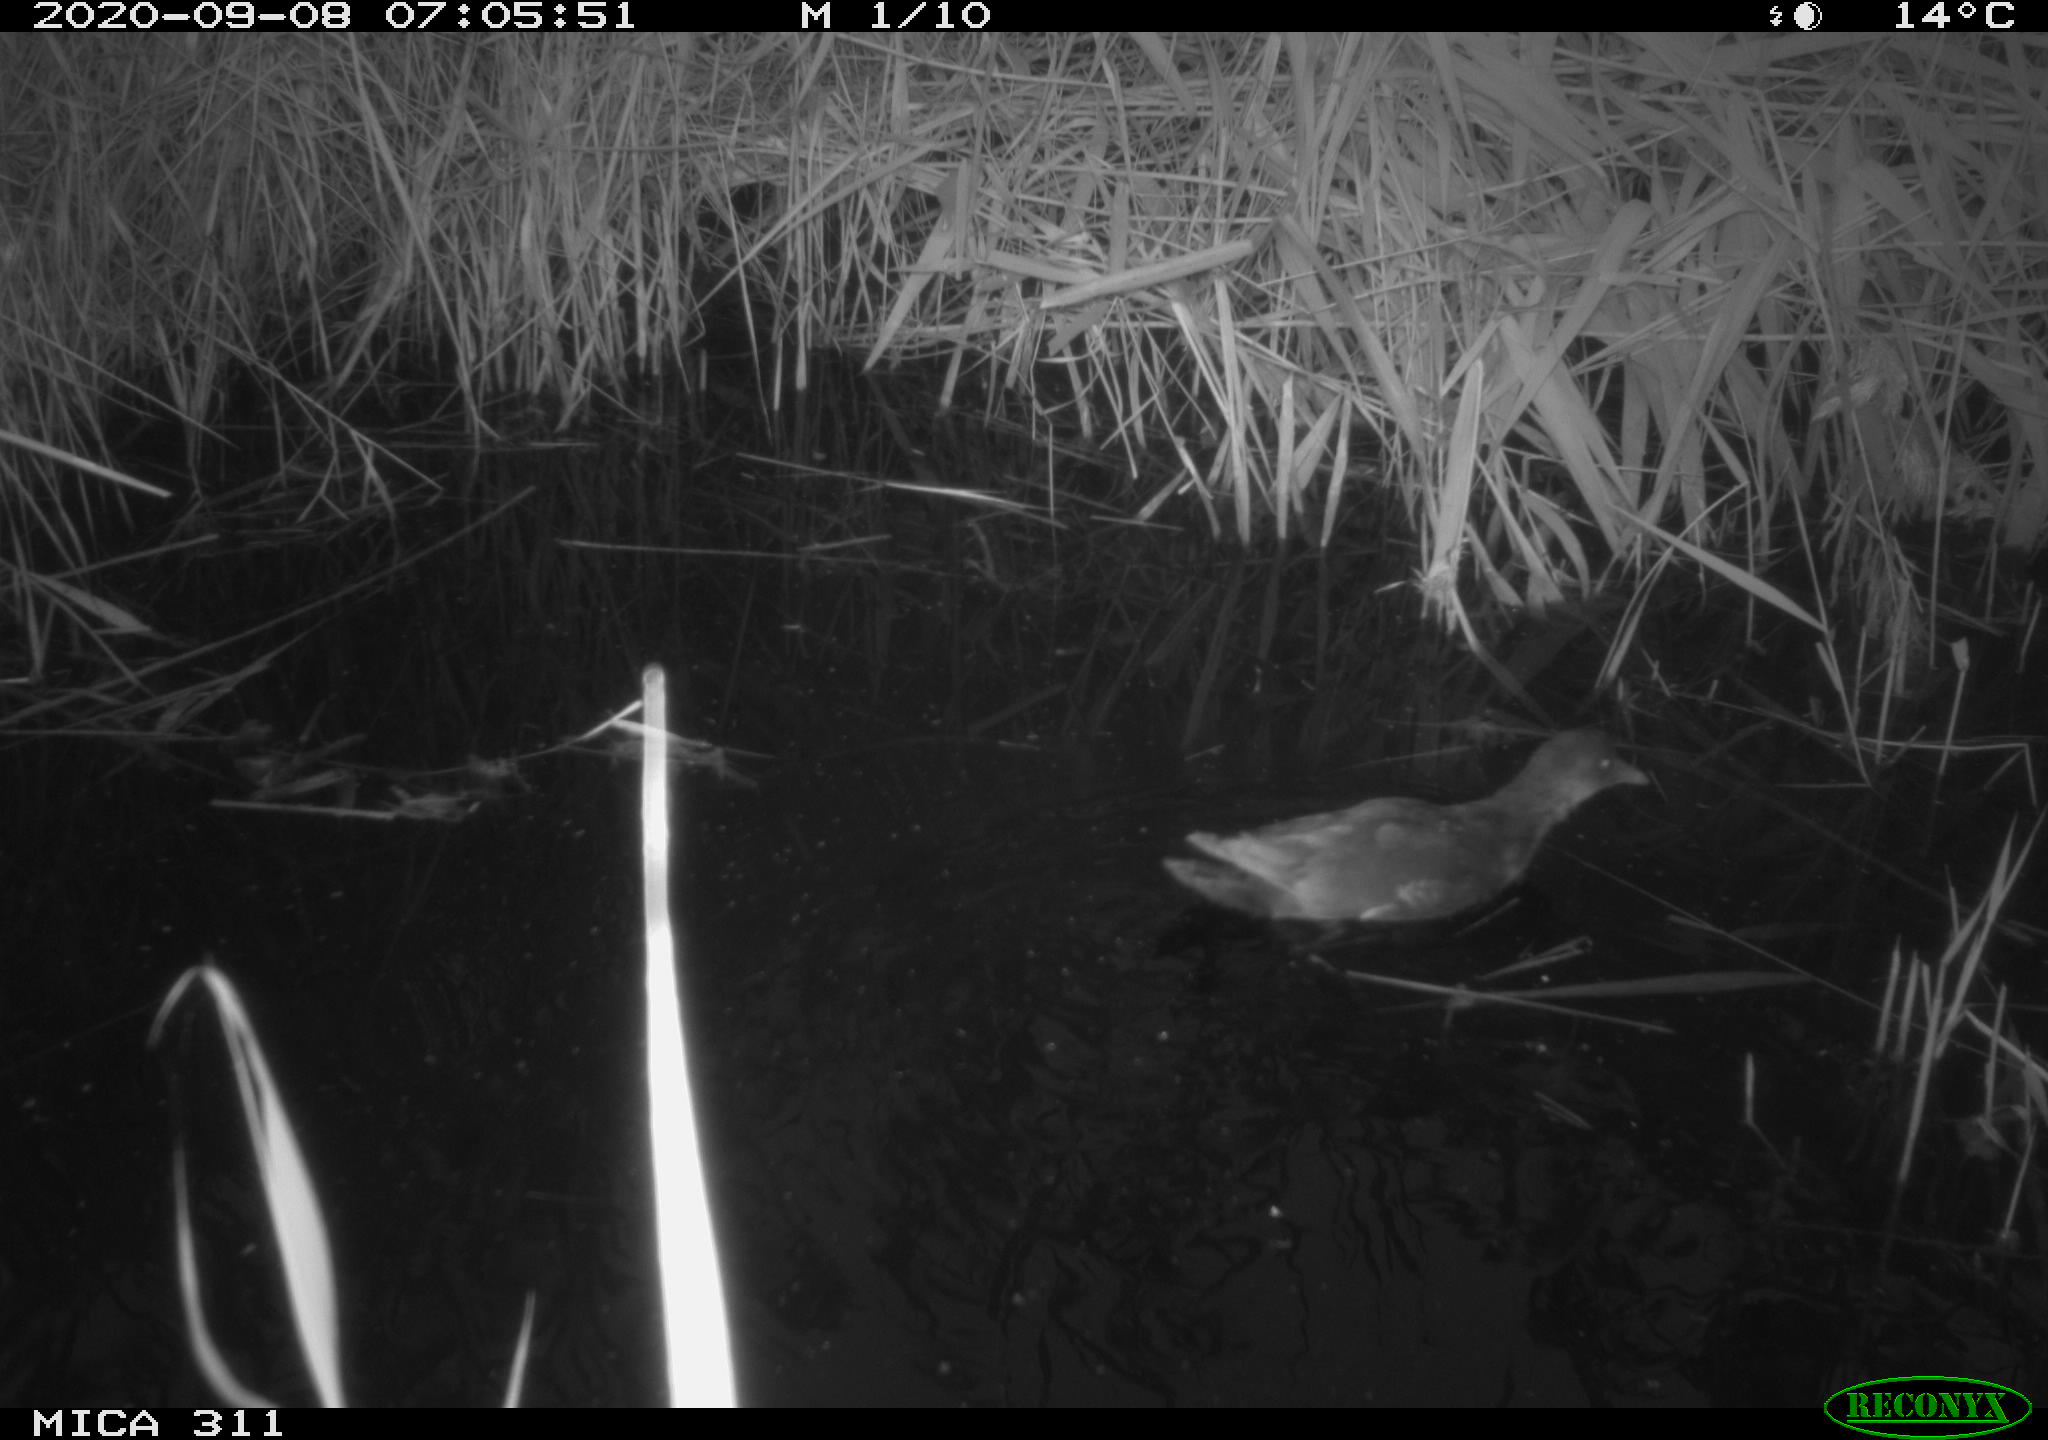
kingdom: Animalia
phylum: Chordata
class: Aves
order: Gruiformes
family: Rallidae
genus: Gallinula
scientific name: Gallinula chloropus
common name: Common moorhen
